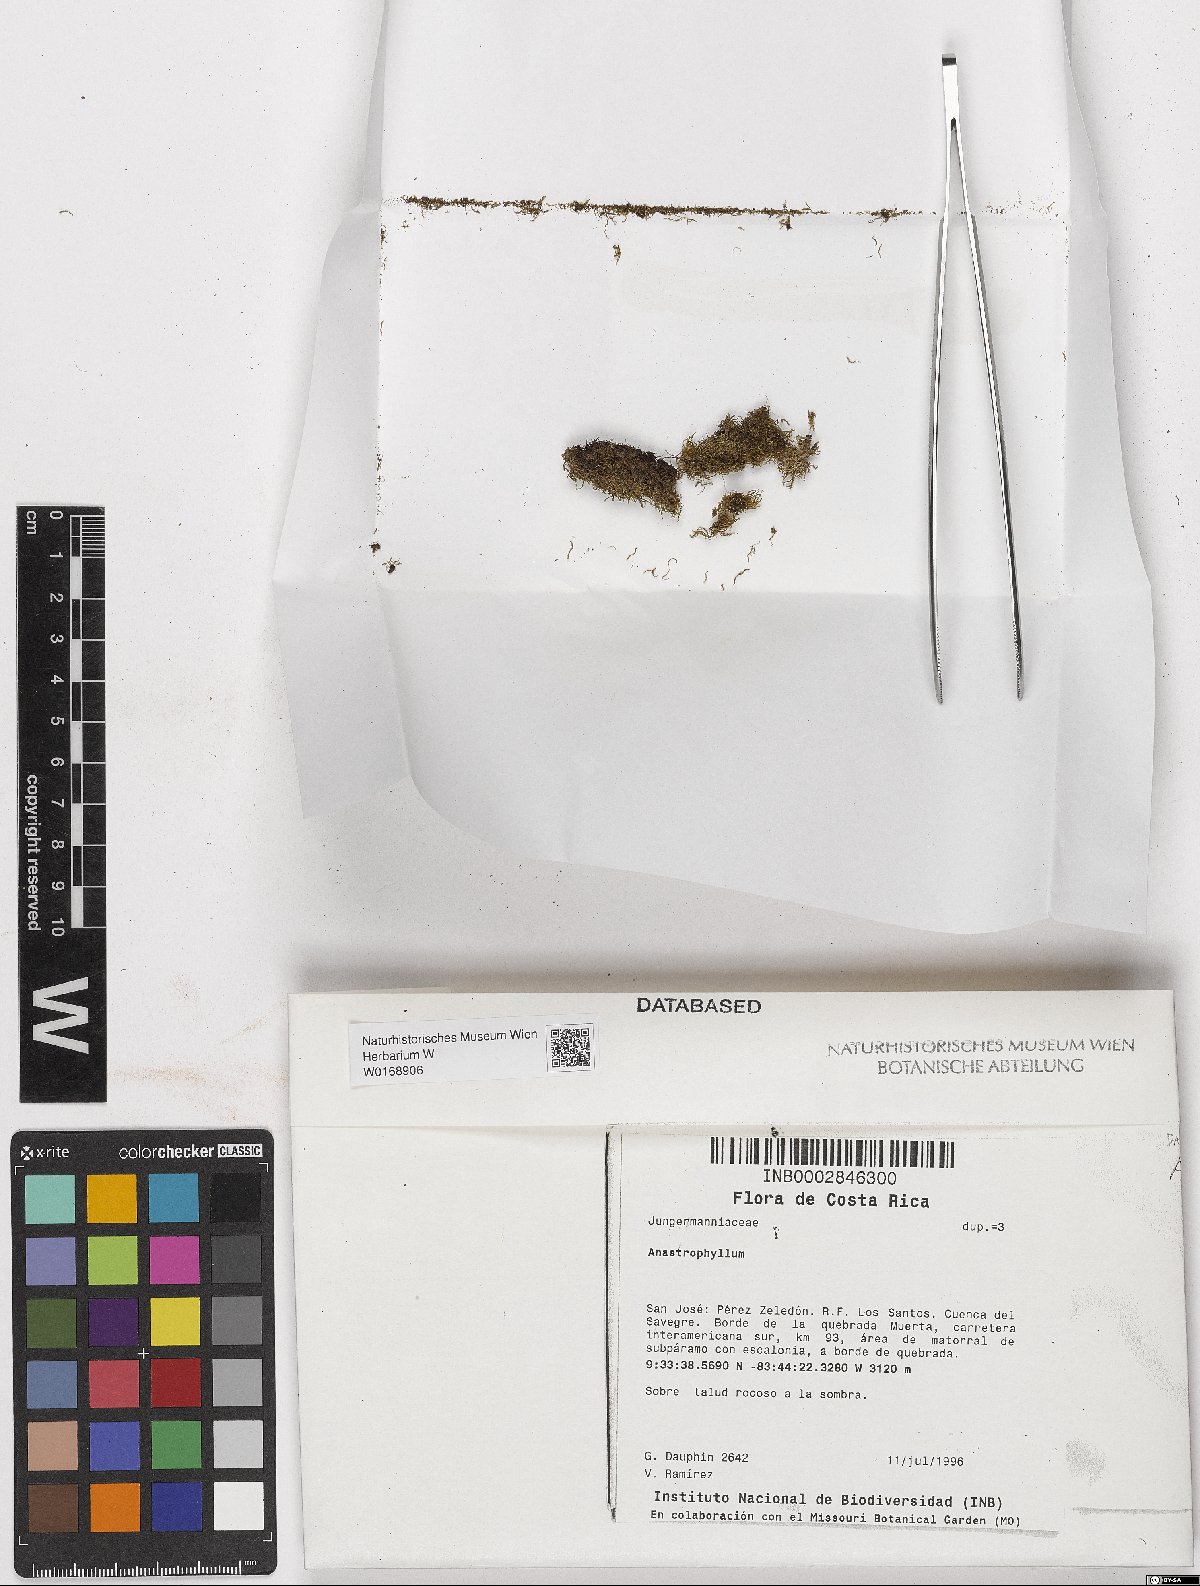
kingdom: Plantae
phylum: Marchantiophyta
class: Jungermanniopsida
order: Jungermanniales
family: Anastrophyllaceae
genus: Anastrophyllum
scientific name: Anastrophyllum
